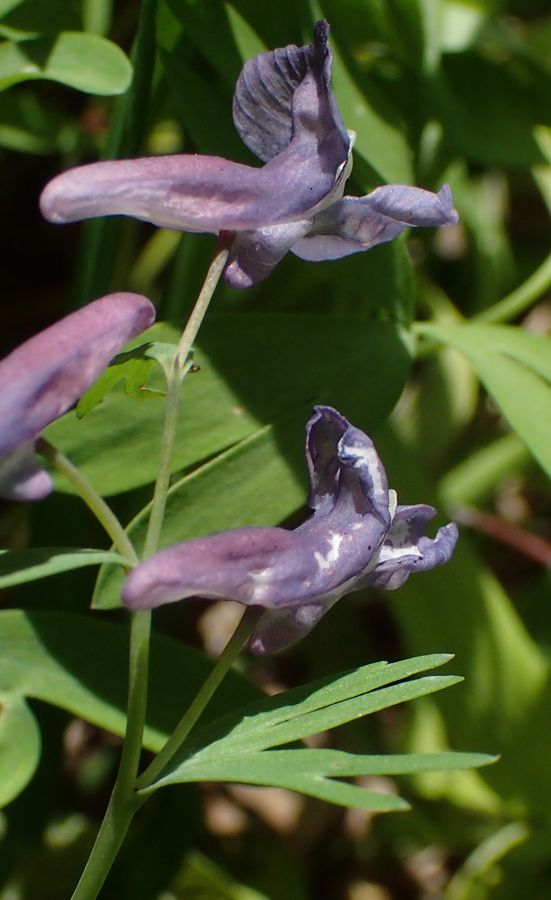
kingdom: Plantae
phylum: Tracheophyta
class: Magnoliopsida
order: Ranunculales
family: Papaveraceae
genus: Corydalis
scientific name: Corydalis solida
